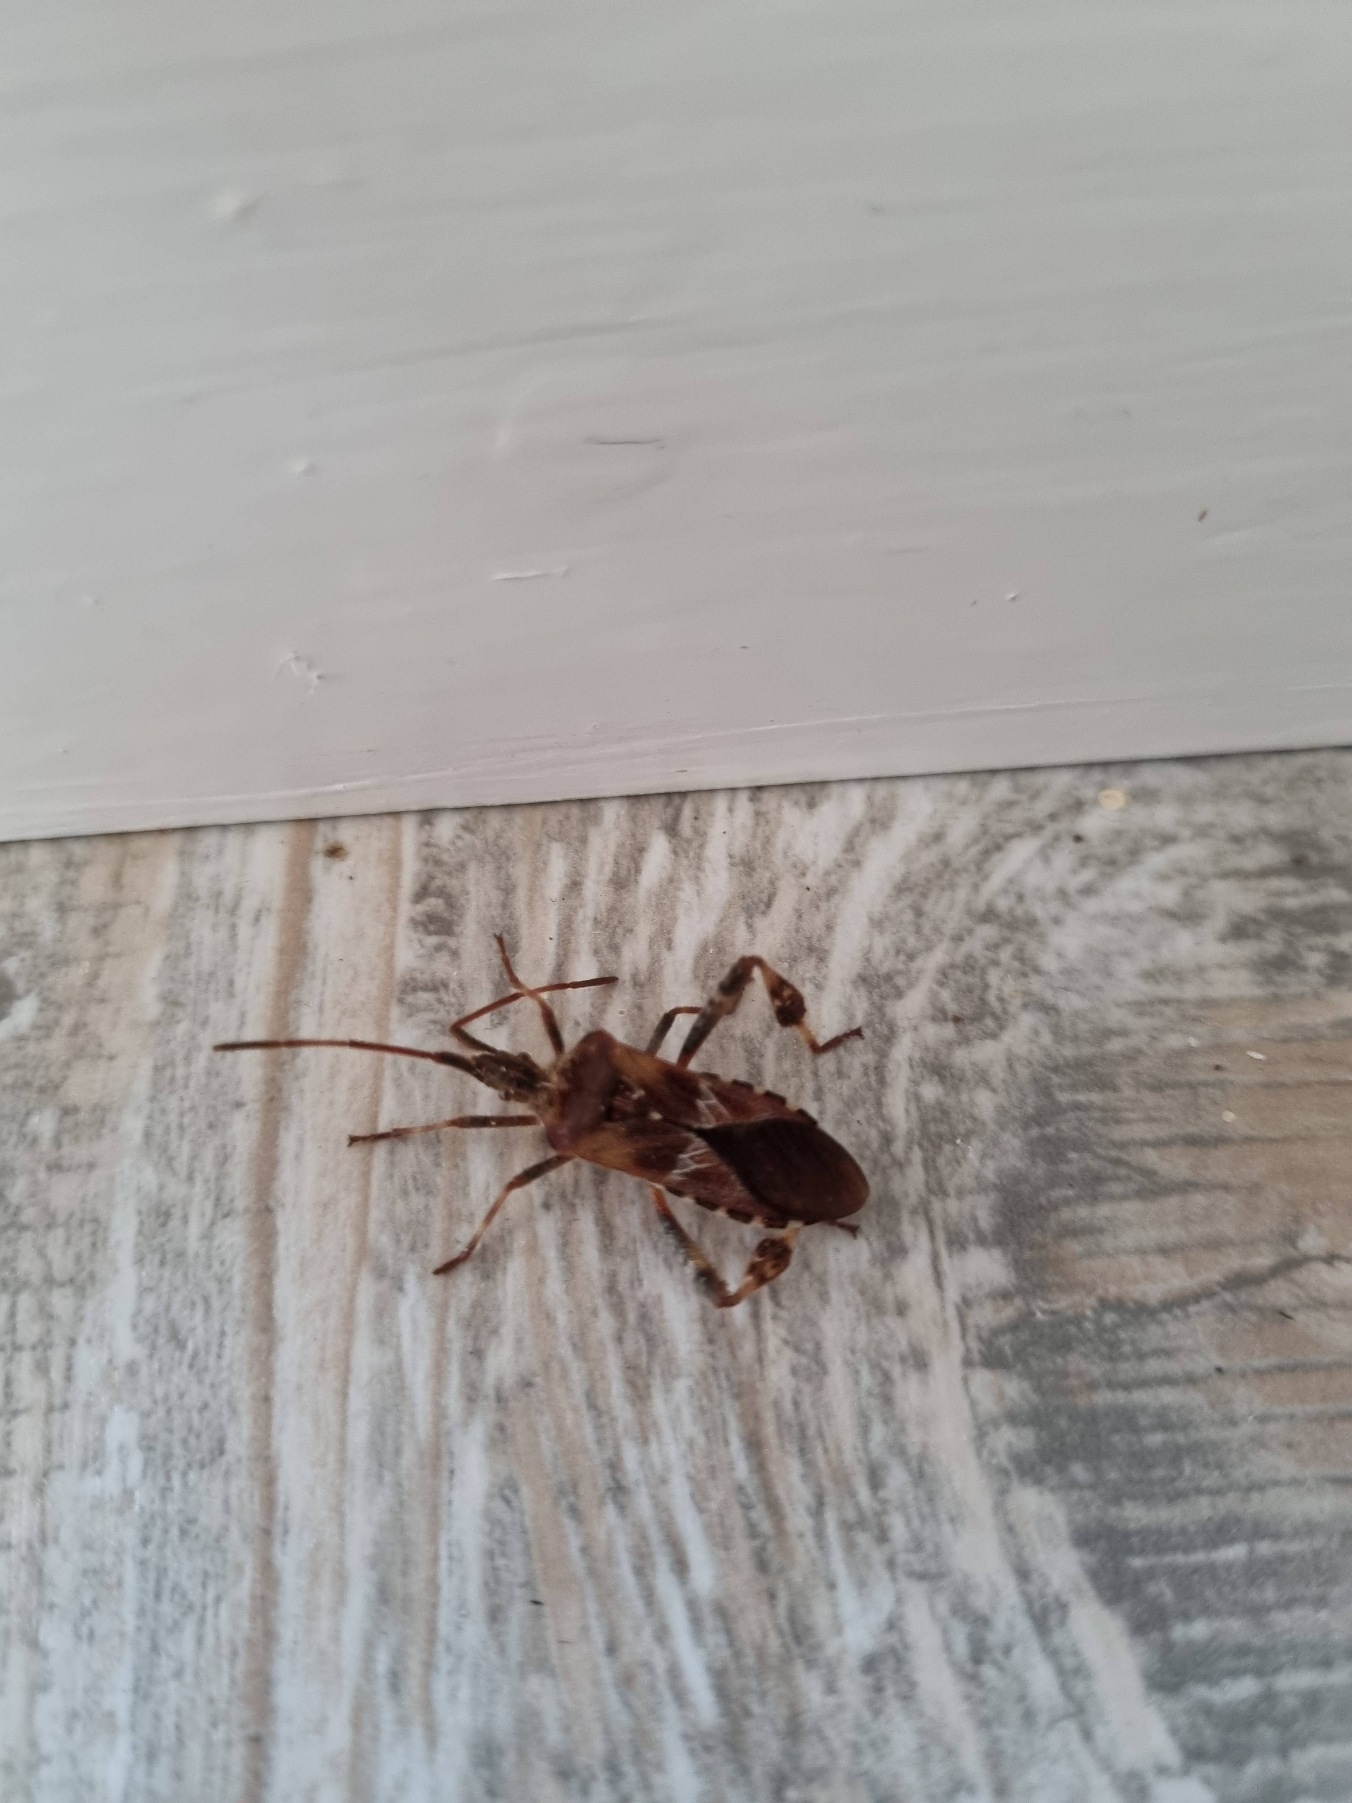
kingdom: Animalia
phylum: Arthropoda
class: Insecta
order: Hemiptera
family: Coreidae
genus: Leptoglossus
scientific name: Leptoglossus occidentalis
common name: Amerikansk fyrretæge
